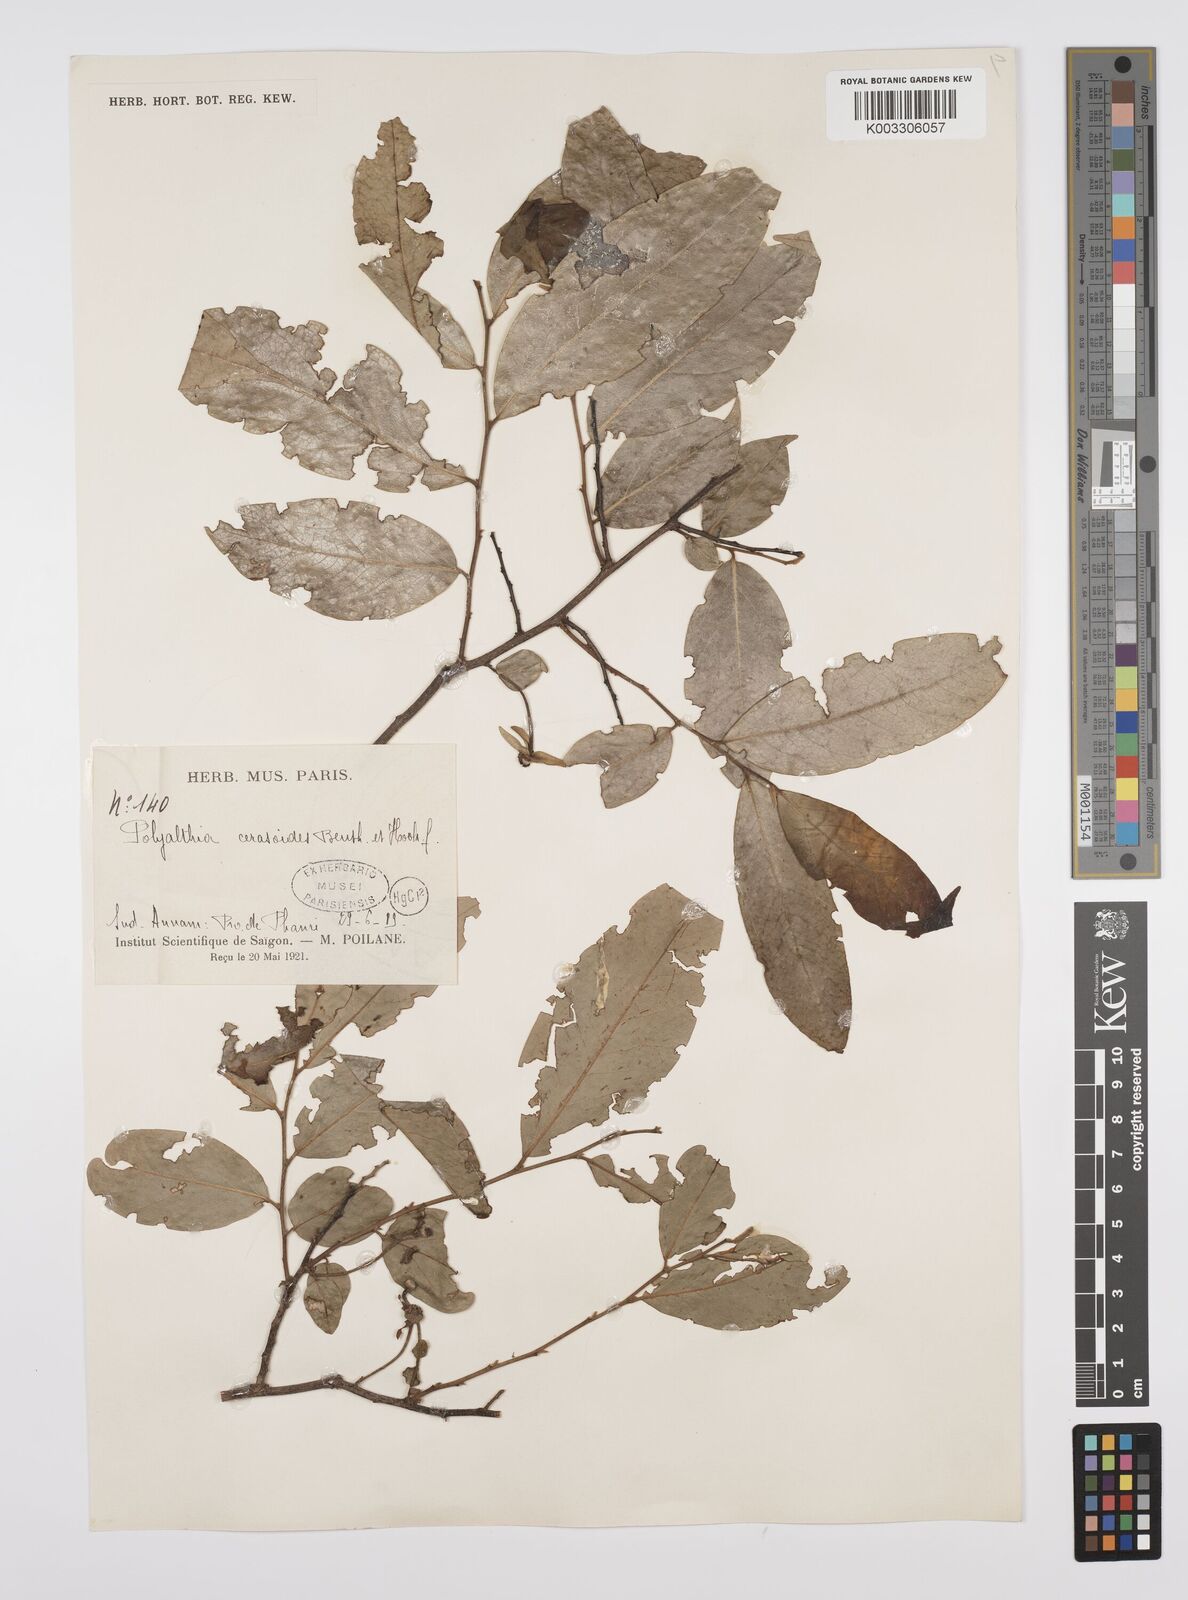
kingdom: Plantae
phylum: Tracheophyta
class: Magnoliopsida
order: Magnoliales
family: Annonaceae
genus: Hubera
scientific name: Hubera cerasoides
